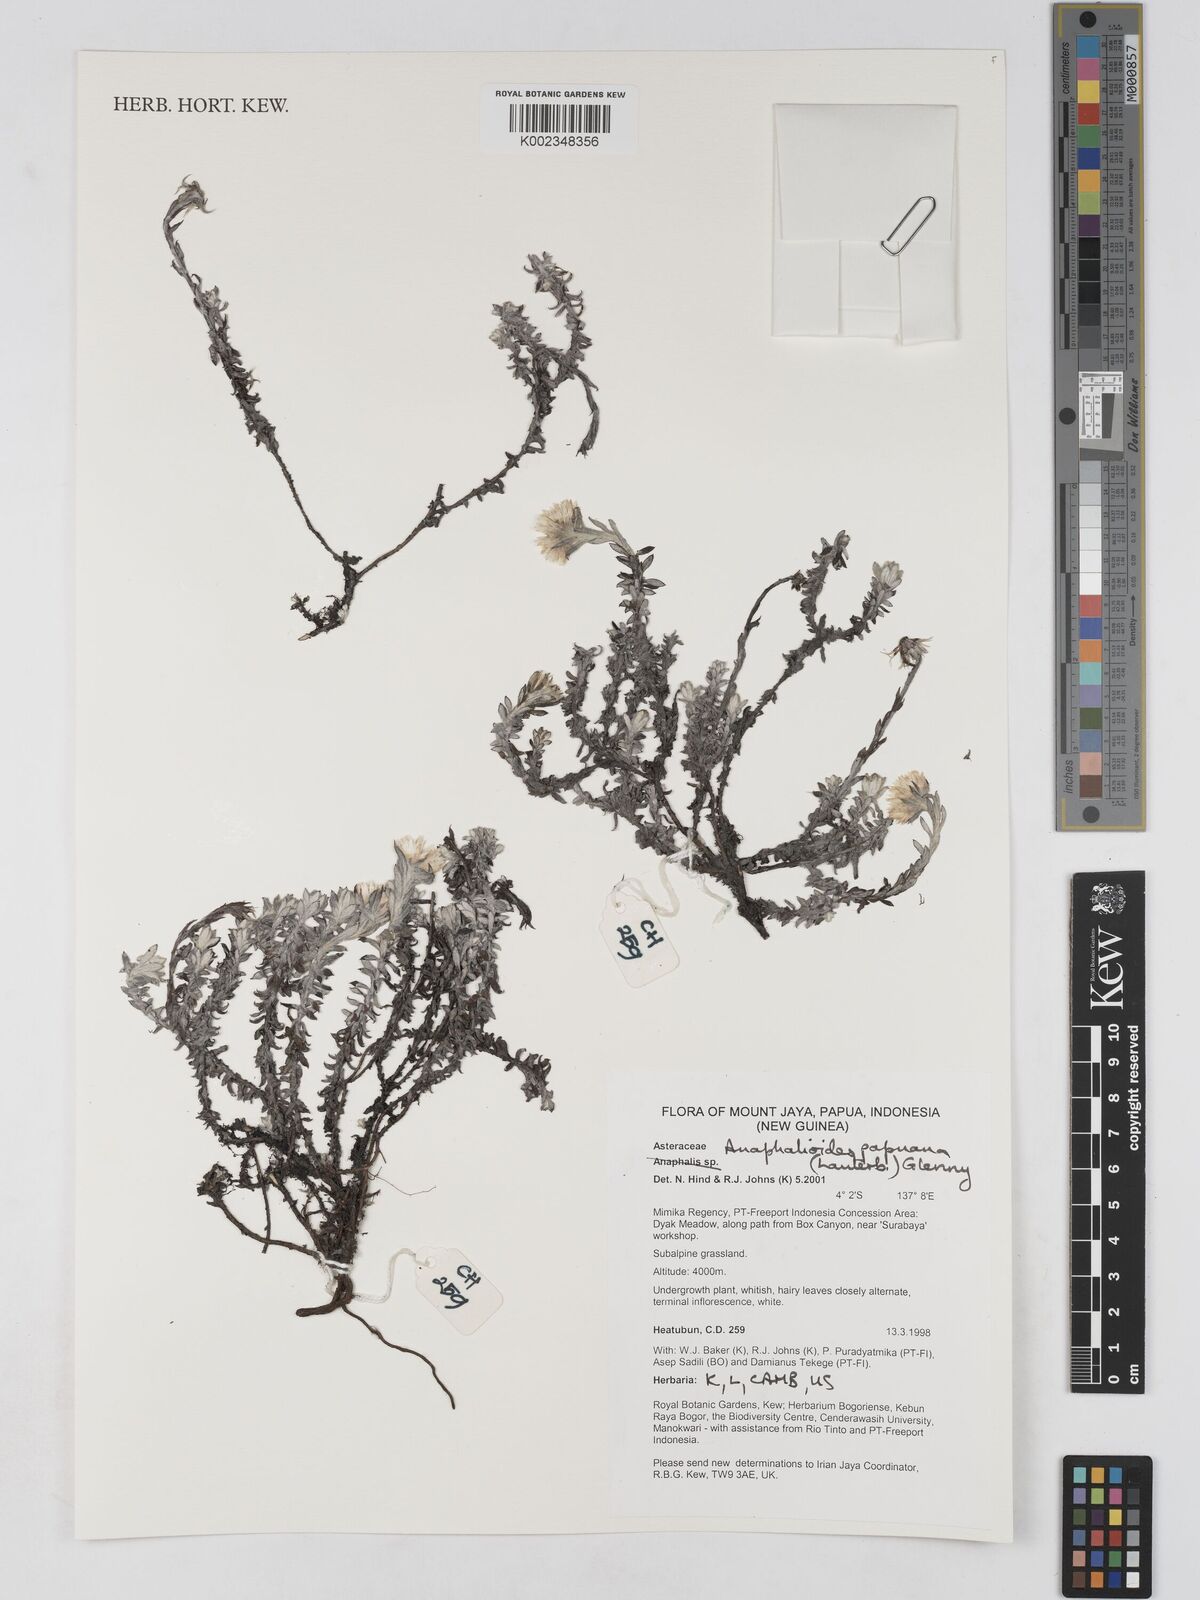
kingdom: Plantae
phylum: Tracheophyta
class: Magnoliopsida
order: Asterales
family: Asteraceae
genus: Anaphalioides
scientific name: Anaphalioides papuana
